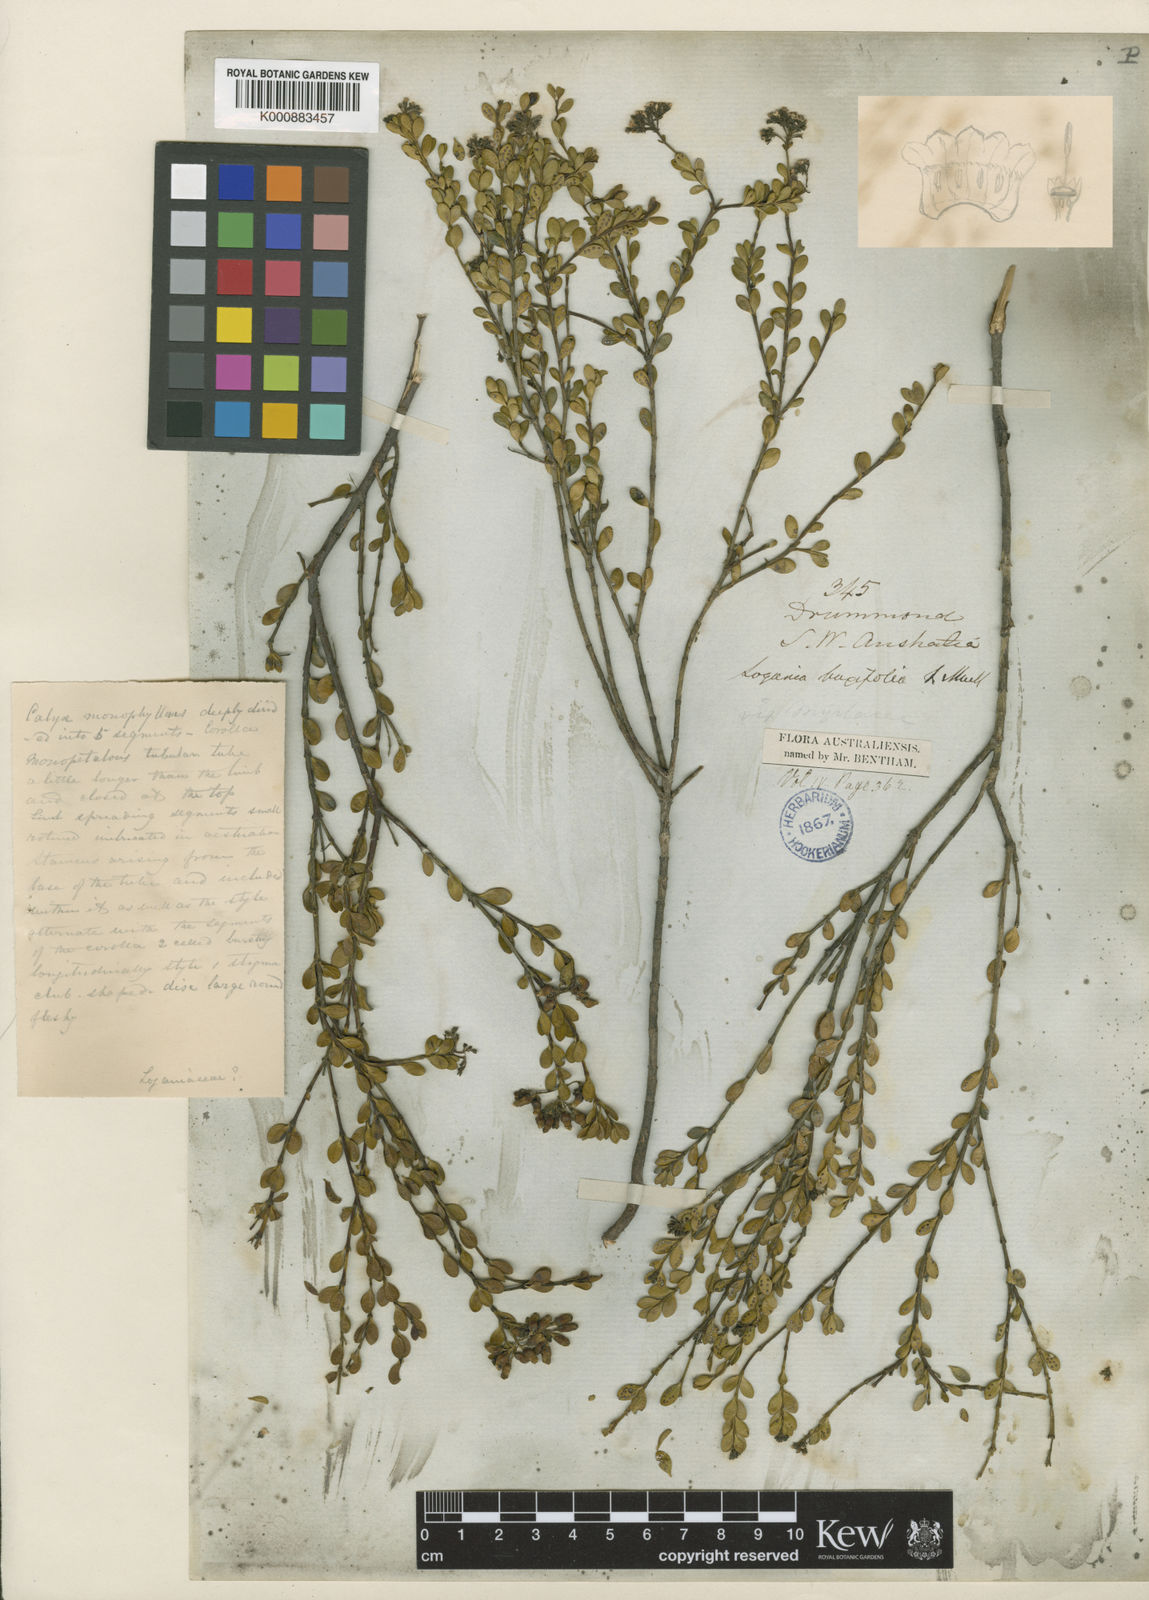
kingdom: Plantae
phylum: Tracheophyta
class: Magnoliopsida
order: Gentianales
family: Loganiaceae
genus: Logania
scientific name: Logania buxifolia
